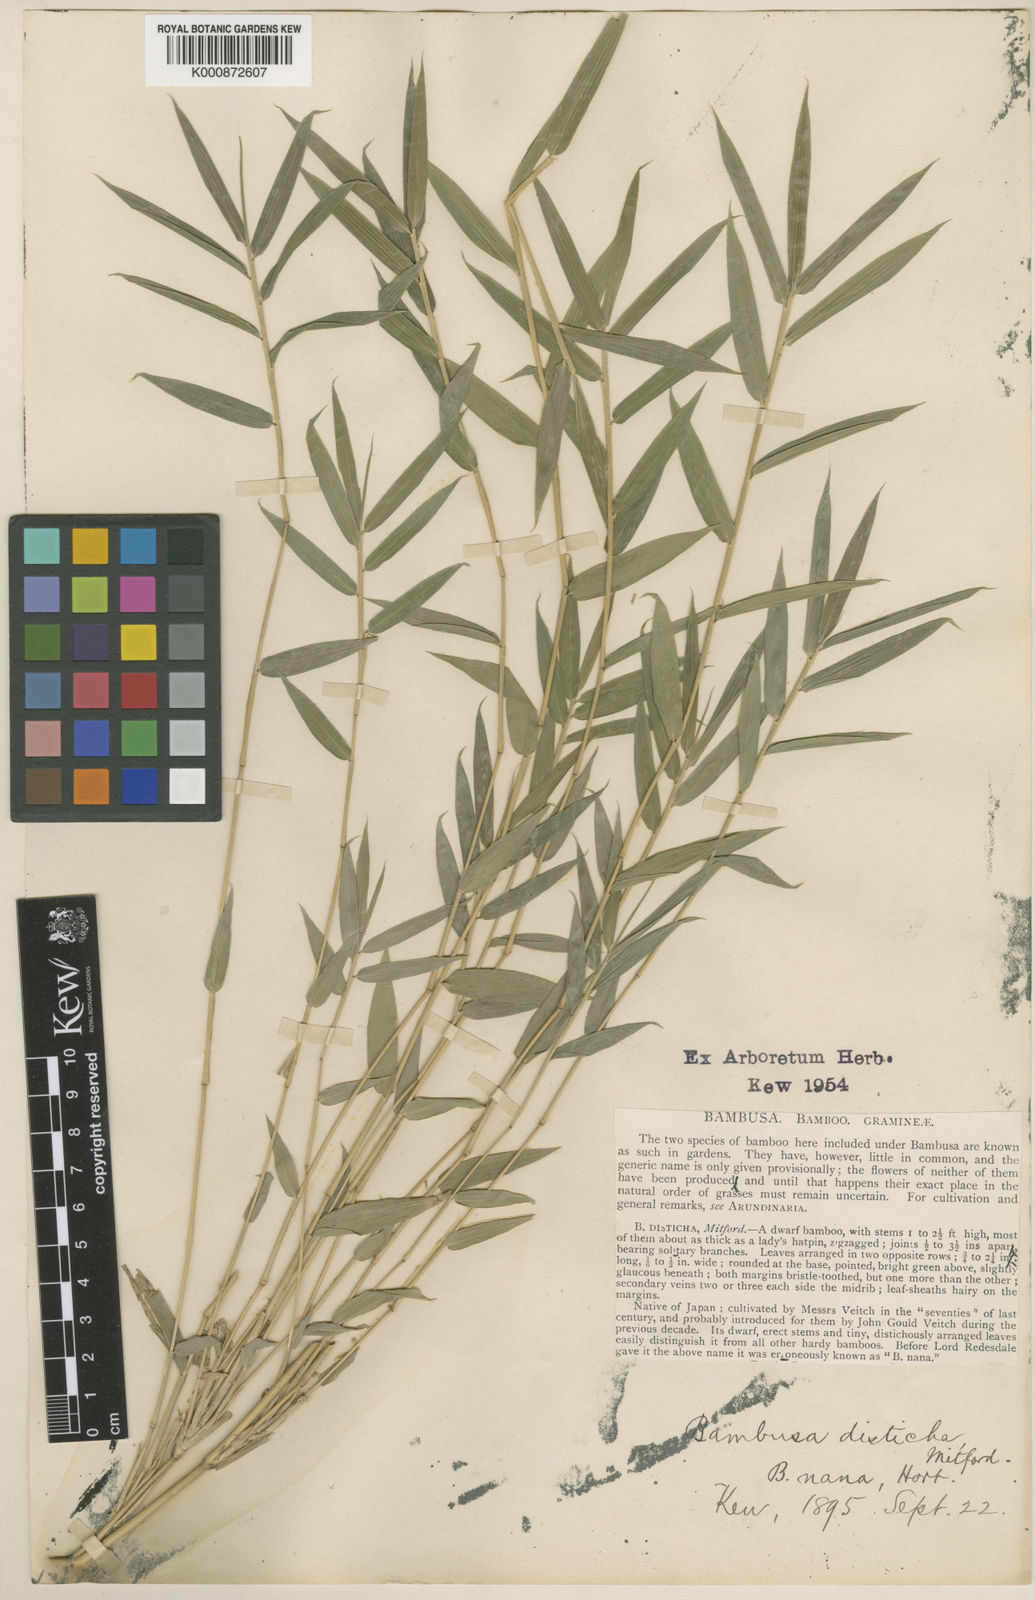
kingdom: Plantae
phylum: Tracheophyta
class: Liliopsida
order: Poales
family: Poaceae
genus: Pleioblastus
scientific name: Pleioblastus distichus
